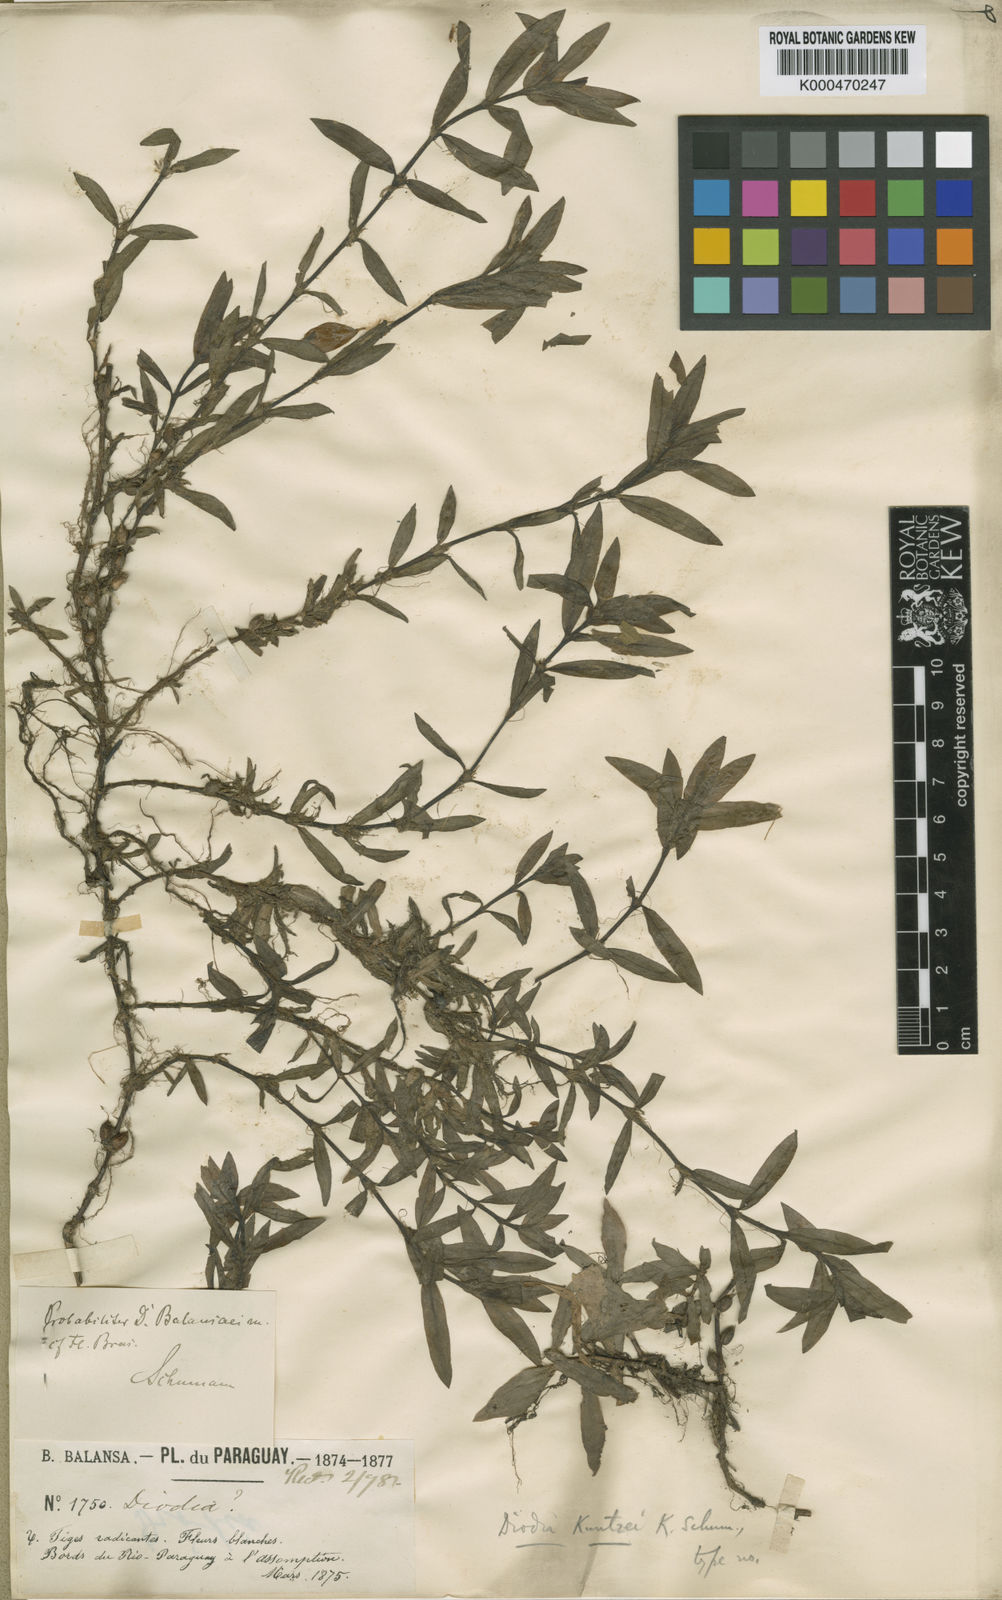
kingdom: Plantae
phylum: Tracheophyta
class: Magnoliopsida
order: Gentianales
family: Rubiaceae
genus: Diodia
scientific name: Diodia kuntzei
